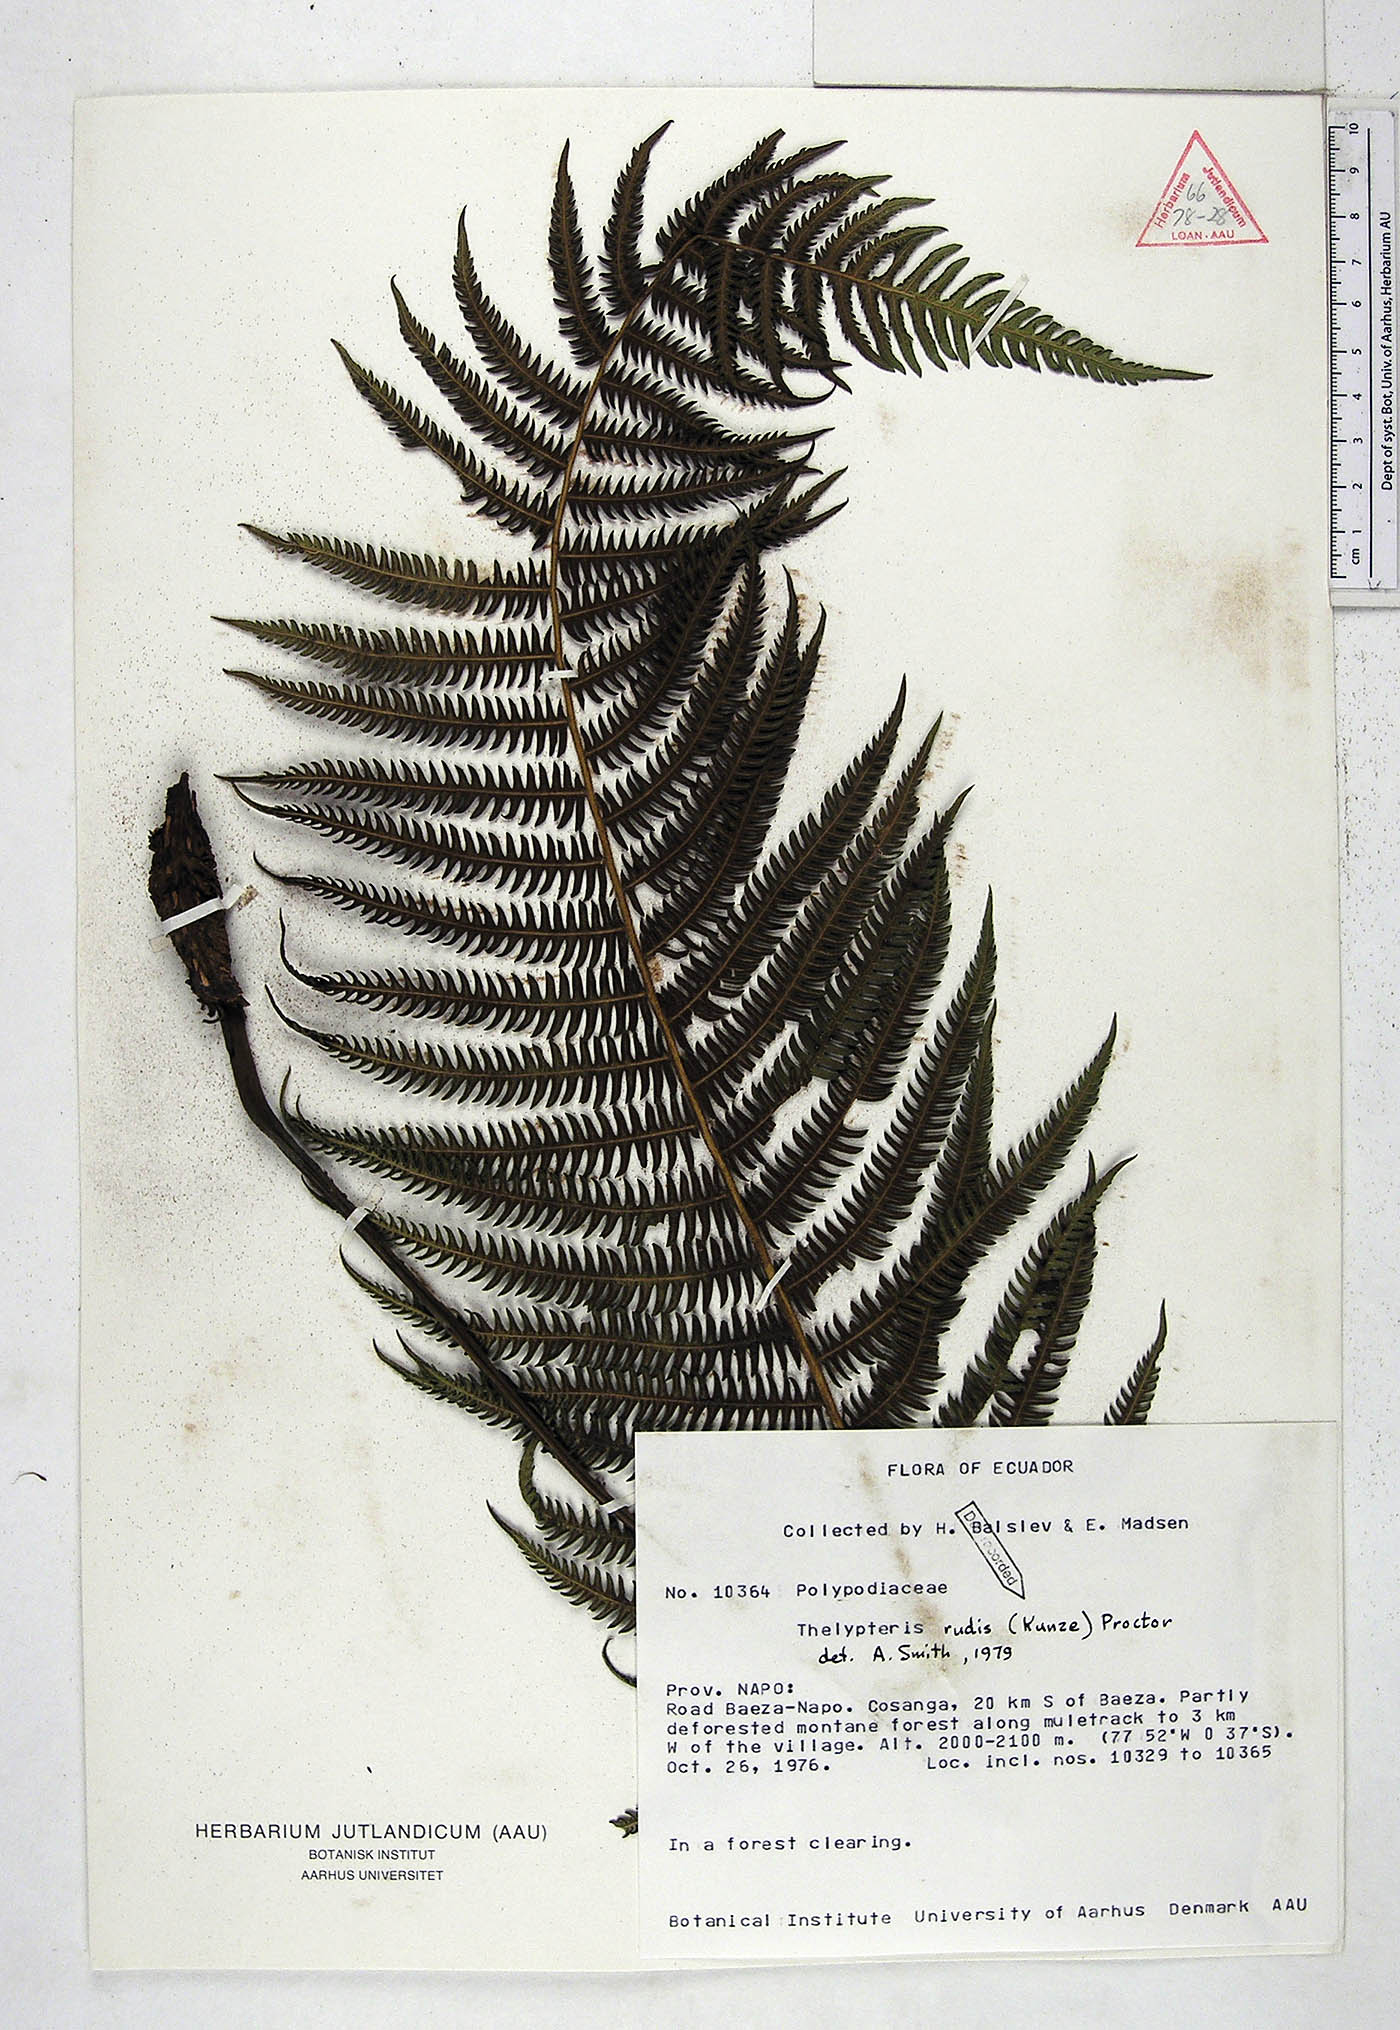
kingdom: Plantae
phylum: Tracheophyta
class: Polypodiopsida
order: Polypodiales
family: Thelypteridaceae
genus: Amauropelta
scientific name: Amauropelta rudis
